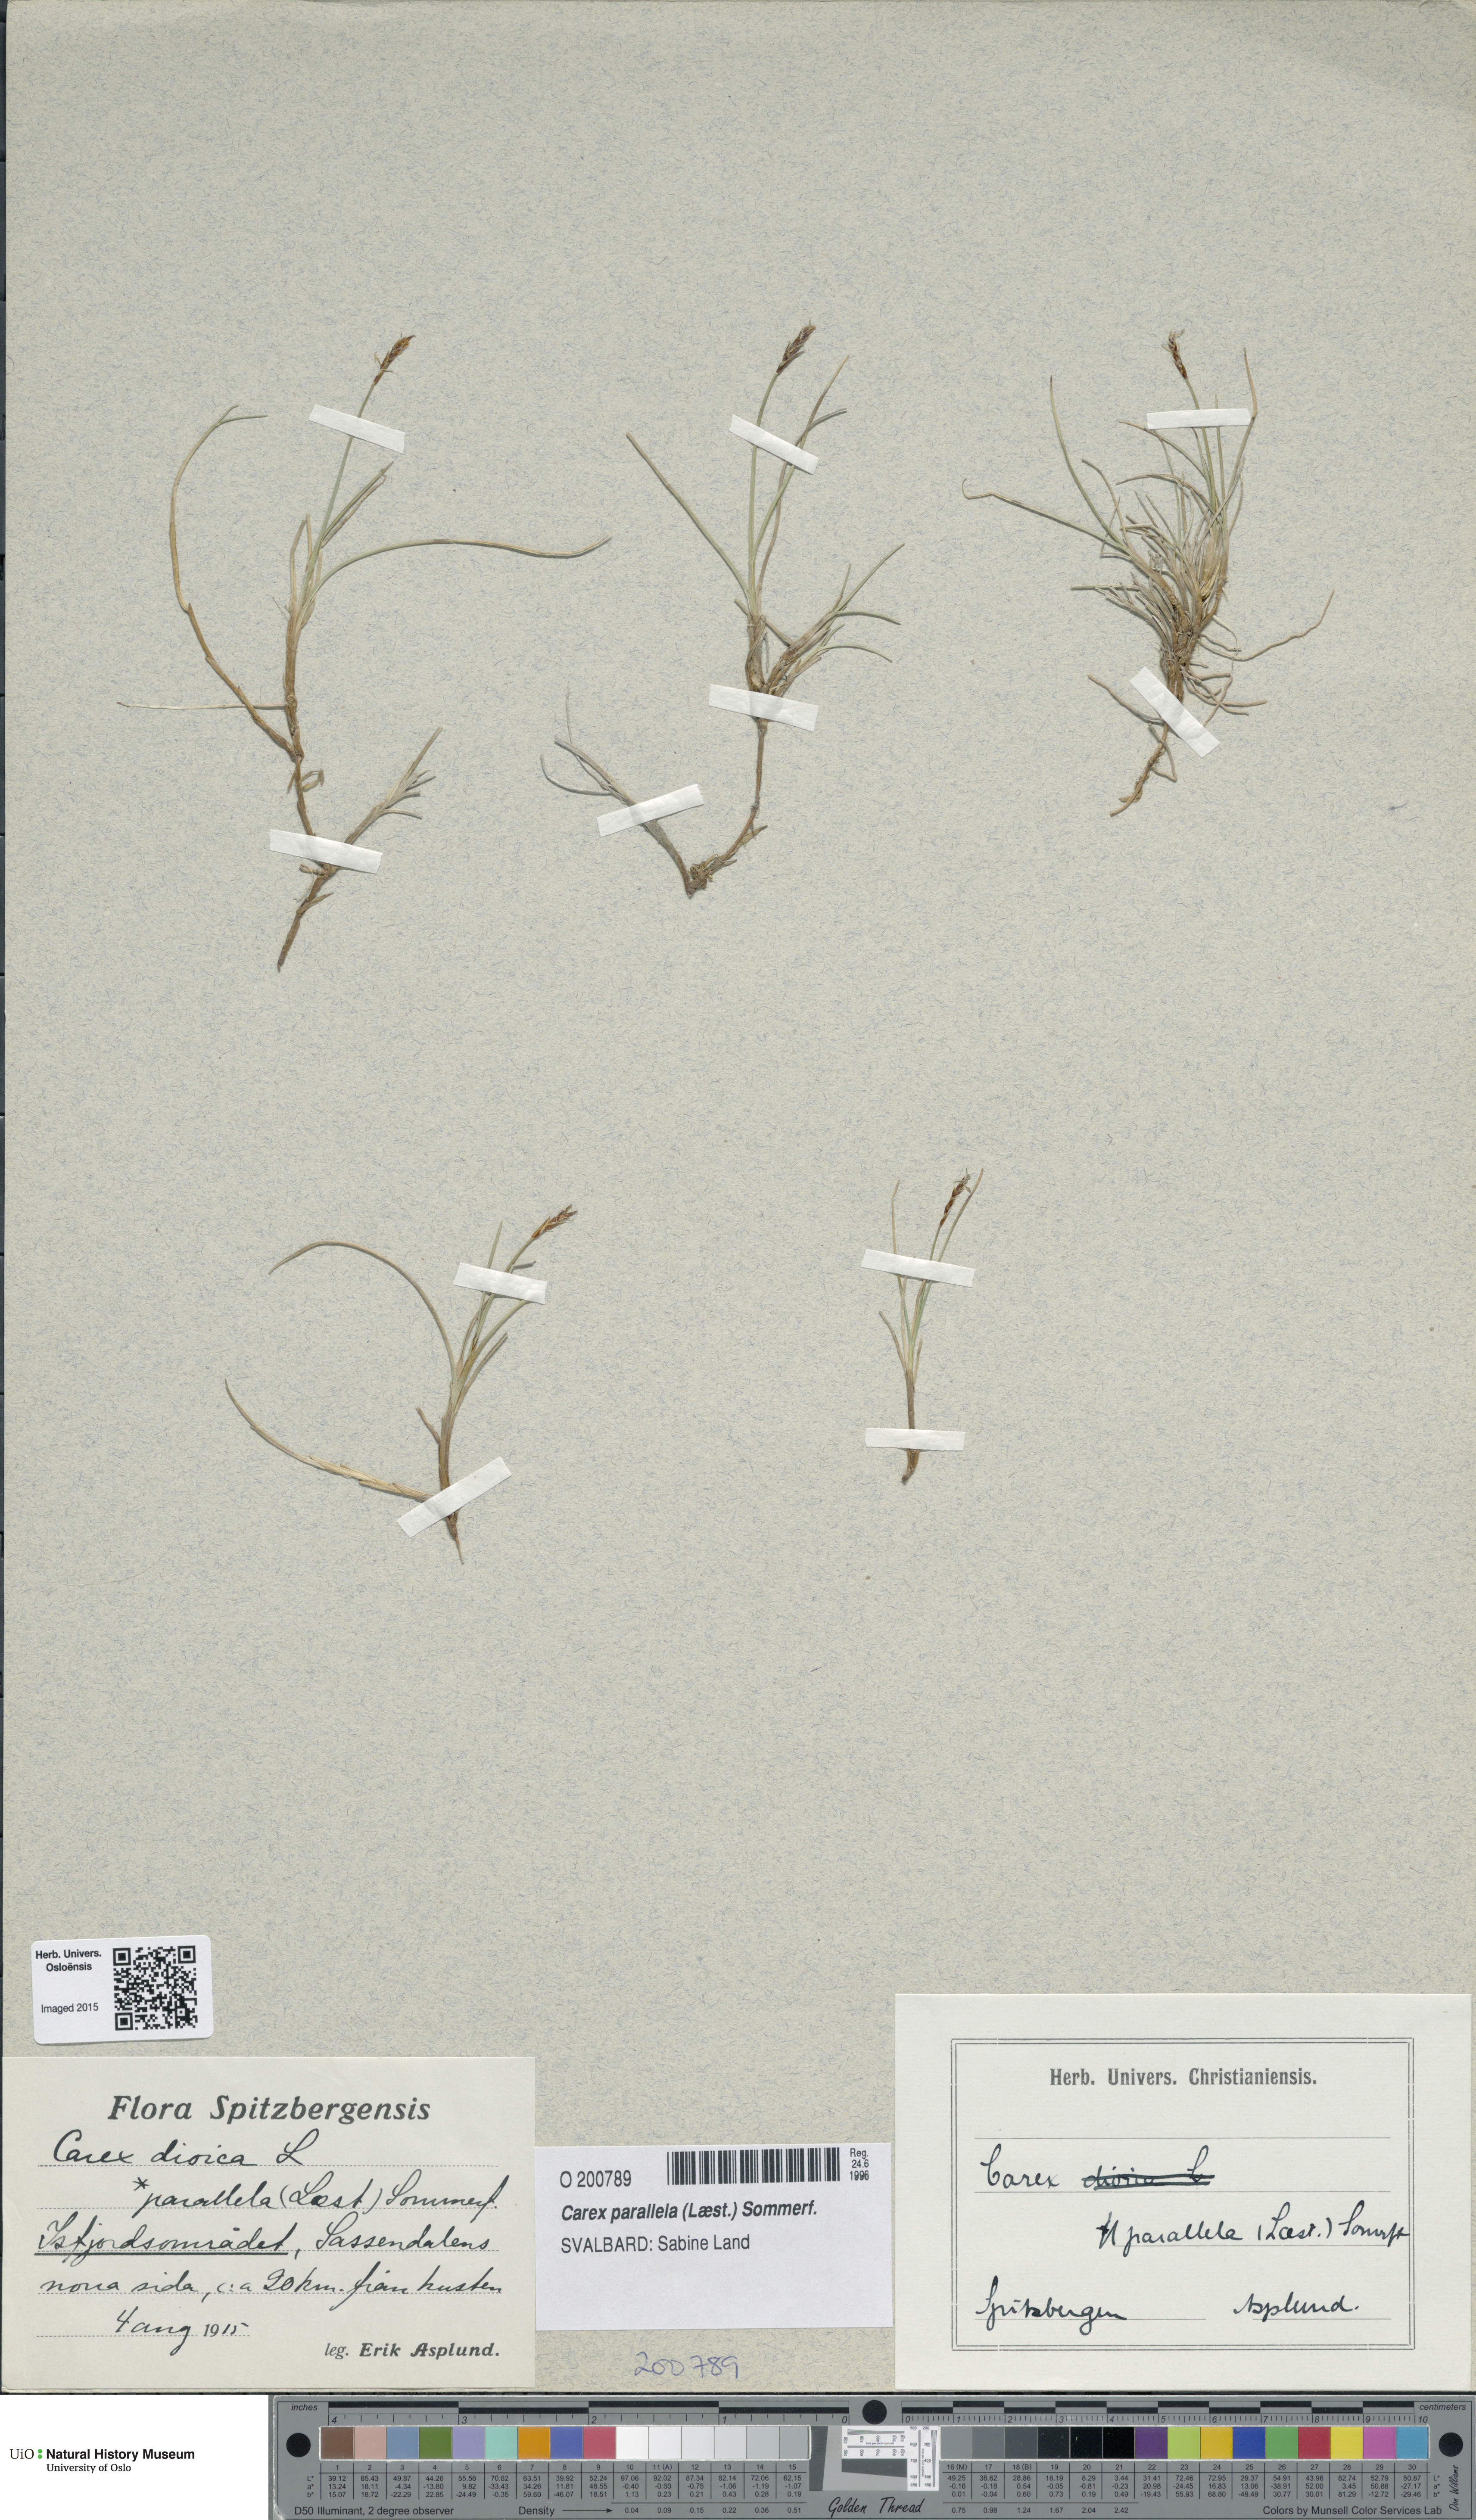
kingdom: Plantae
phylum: Tracheophyta
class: Liliopsida
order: Poales
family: Cyperaceae
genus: Carex
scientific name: Carex parallela
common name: Parallel sedge
